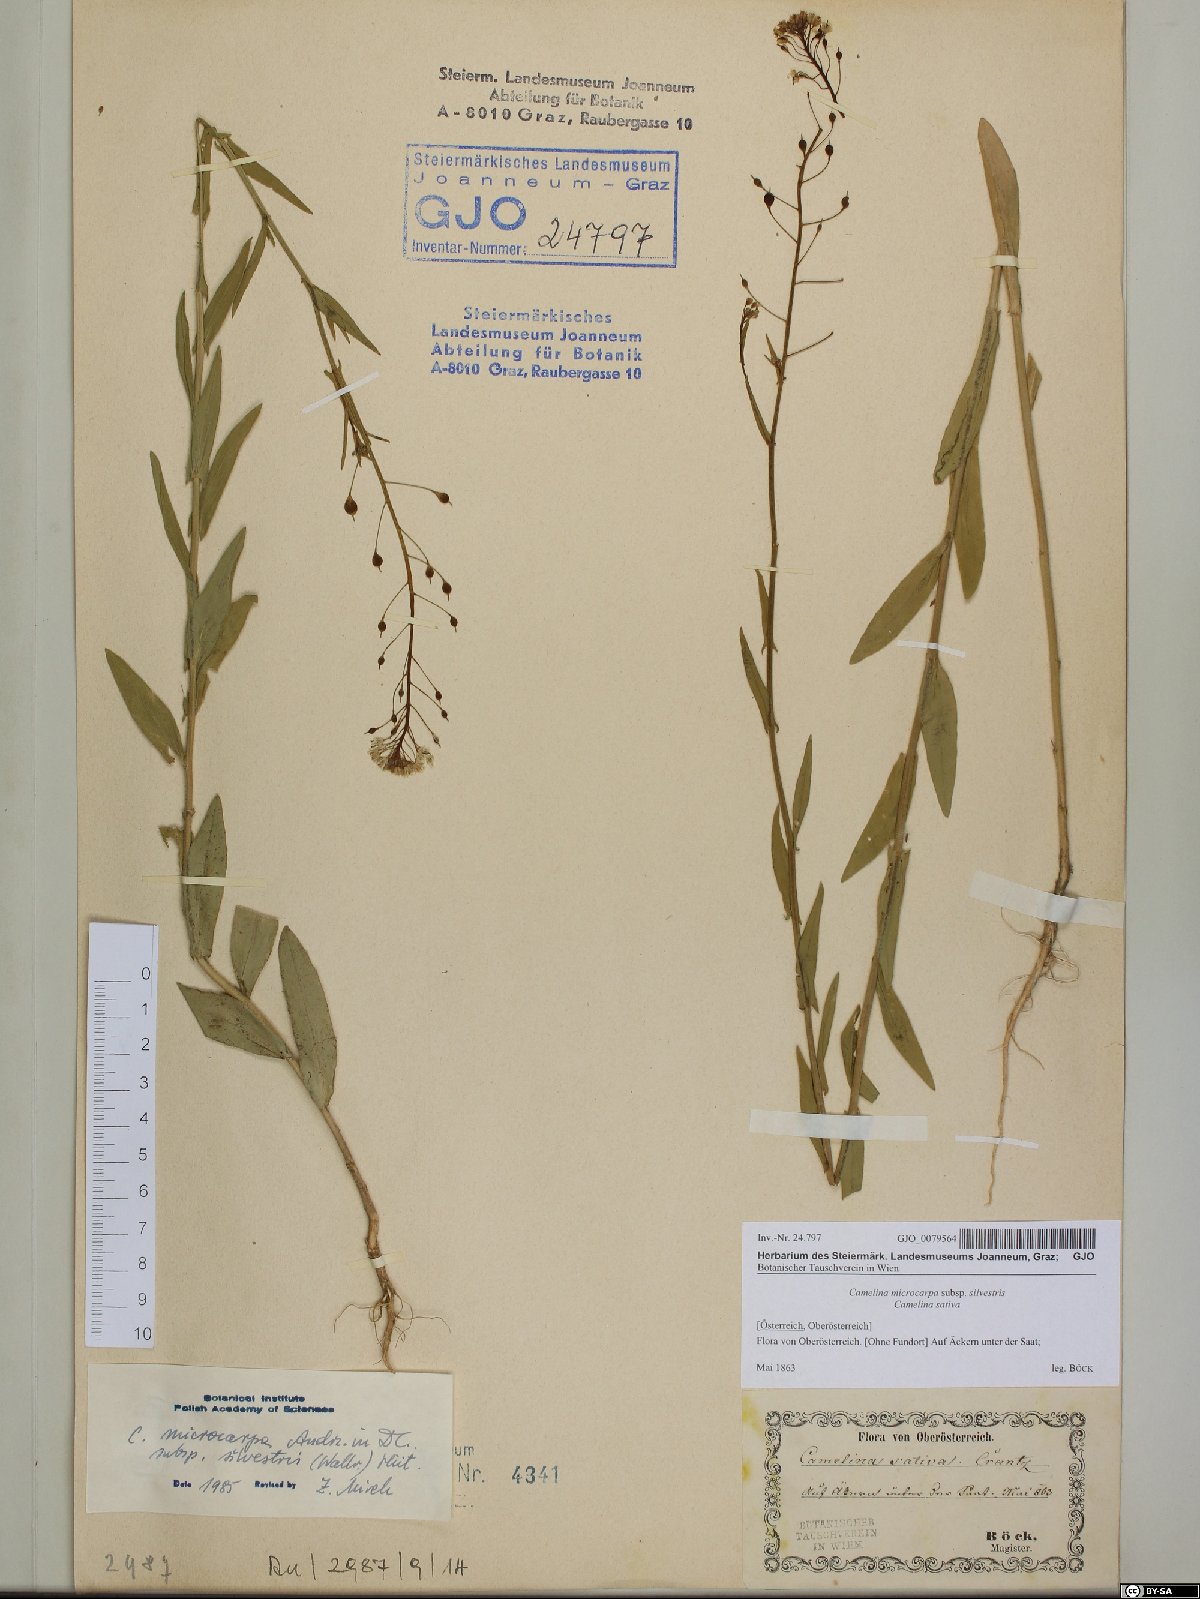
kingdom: Plantae
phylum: Tracheophyta
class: Magnoliopsida
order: Brassicales
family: Brassicaceae
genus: Camelina
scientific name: Camelina microcarpa
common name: Lesser gold-of-pleasure
